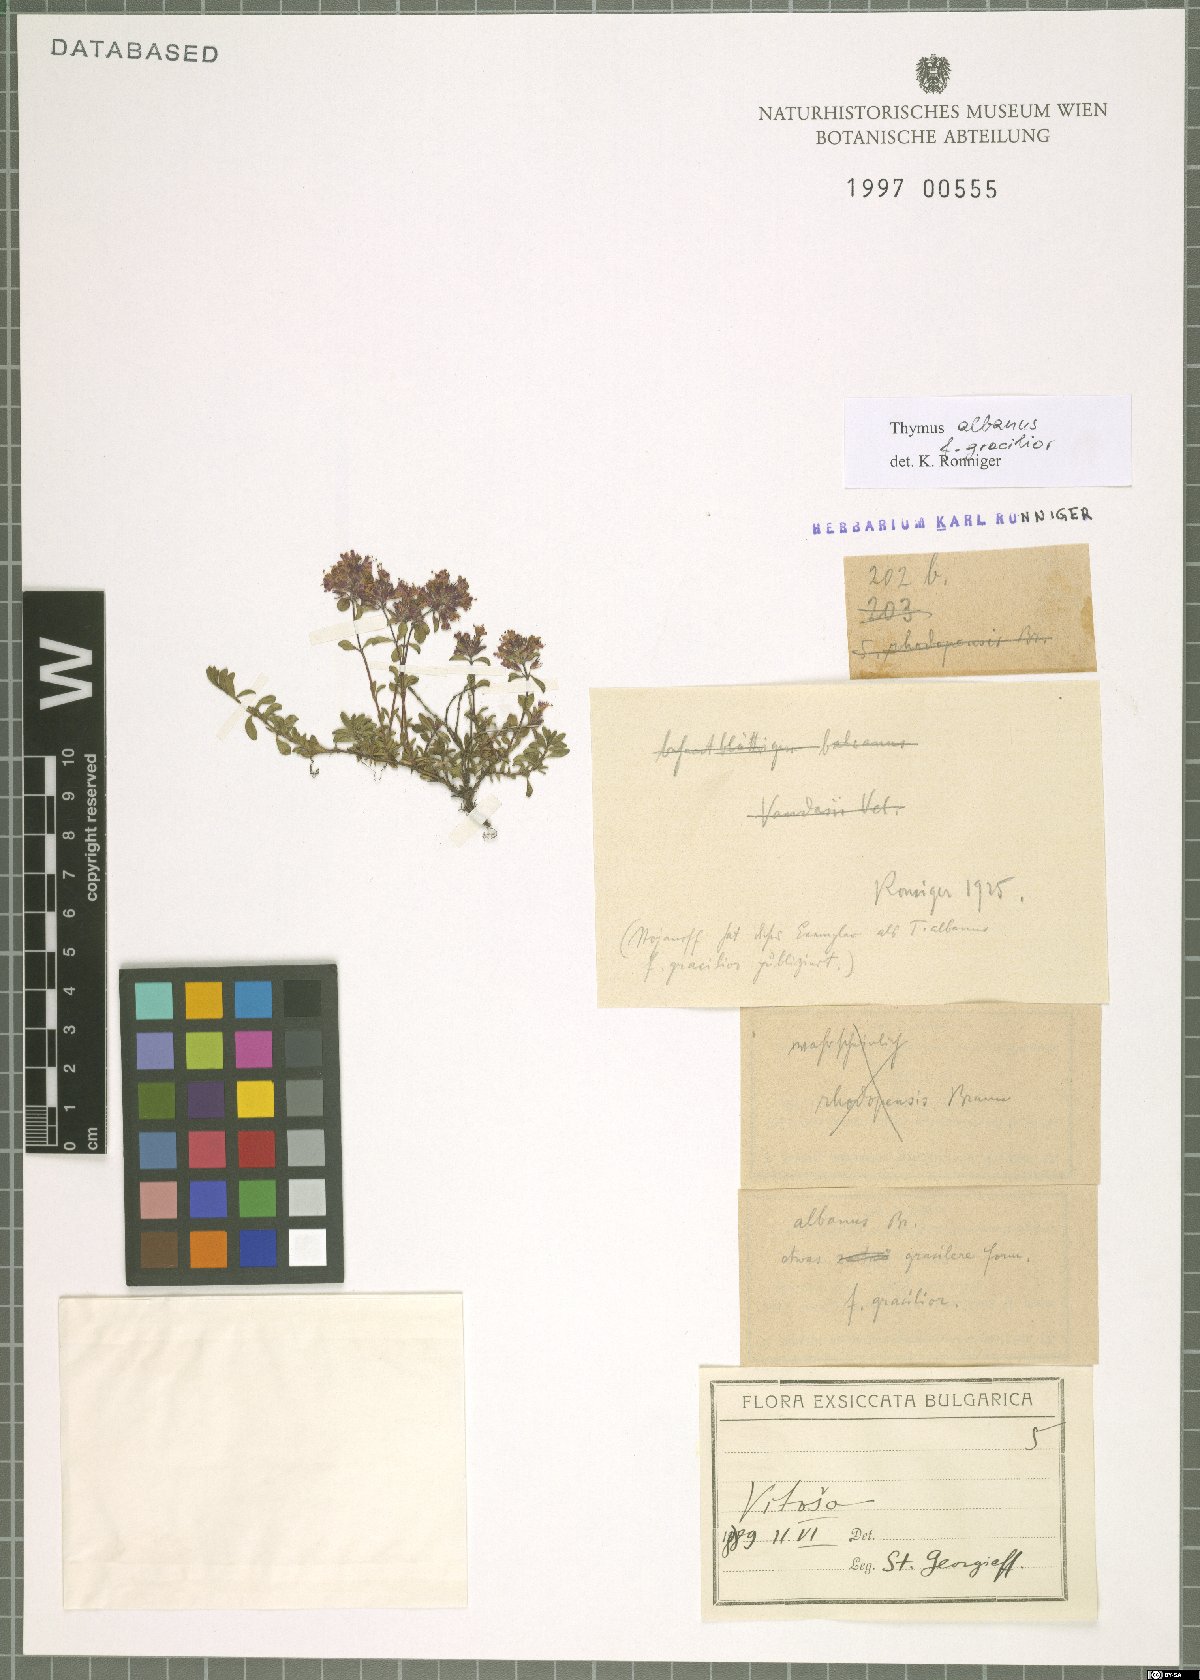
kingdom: Plantae
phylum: Tracheophyta
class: Magnoliopsida
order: Lamiales
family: Lamiaceae
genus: Thymus
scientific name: Thymus albanus
